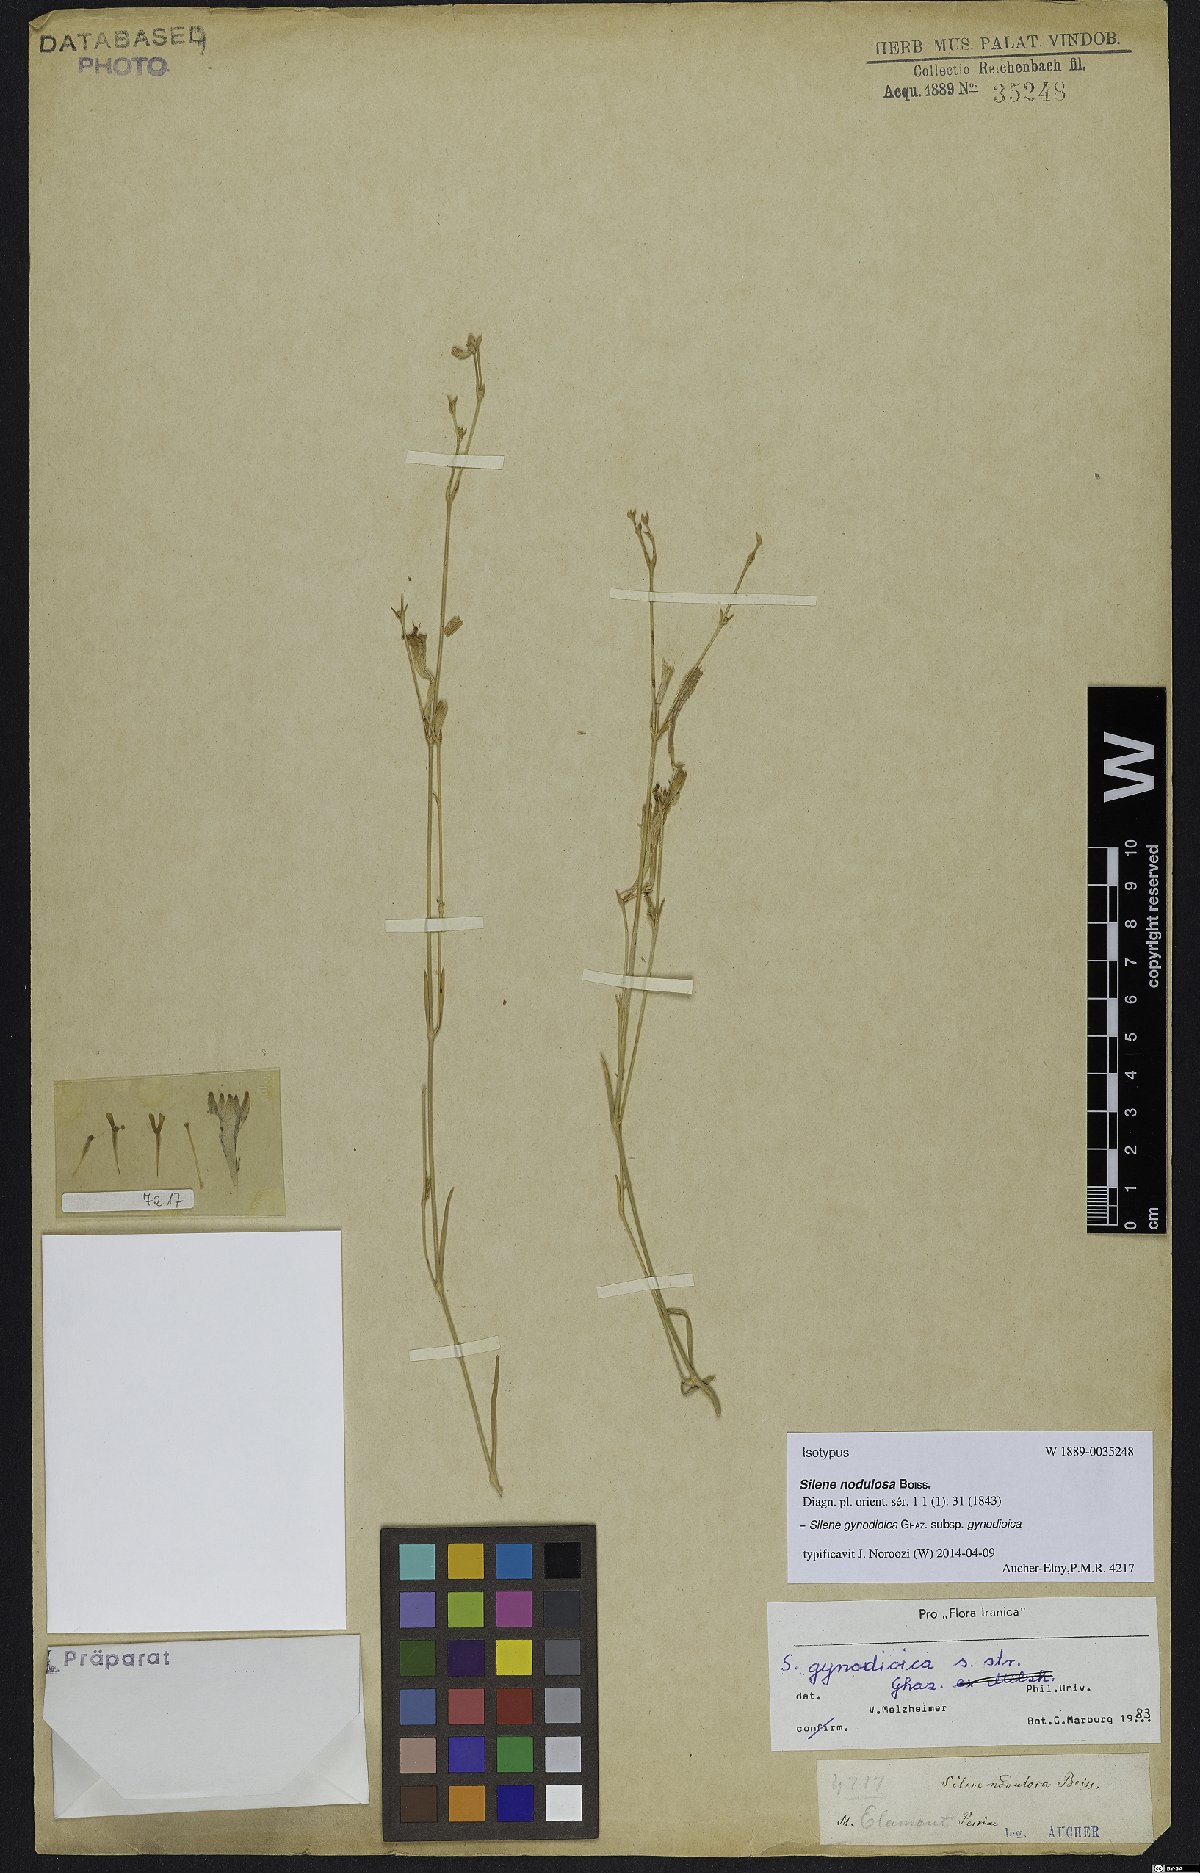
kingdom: Plantae
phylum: Tracheophyta
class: Magnoliopsida
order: Caryophyllales
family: Caryophyllaceae
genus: Silene
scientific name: Silene gynodioica
